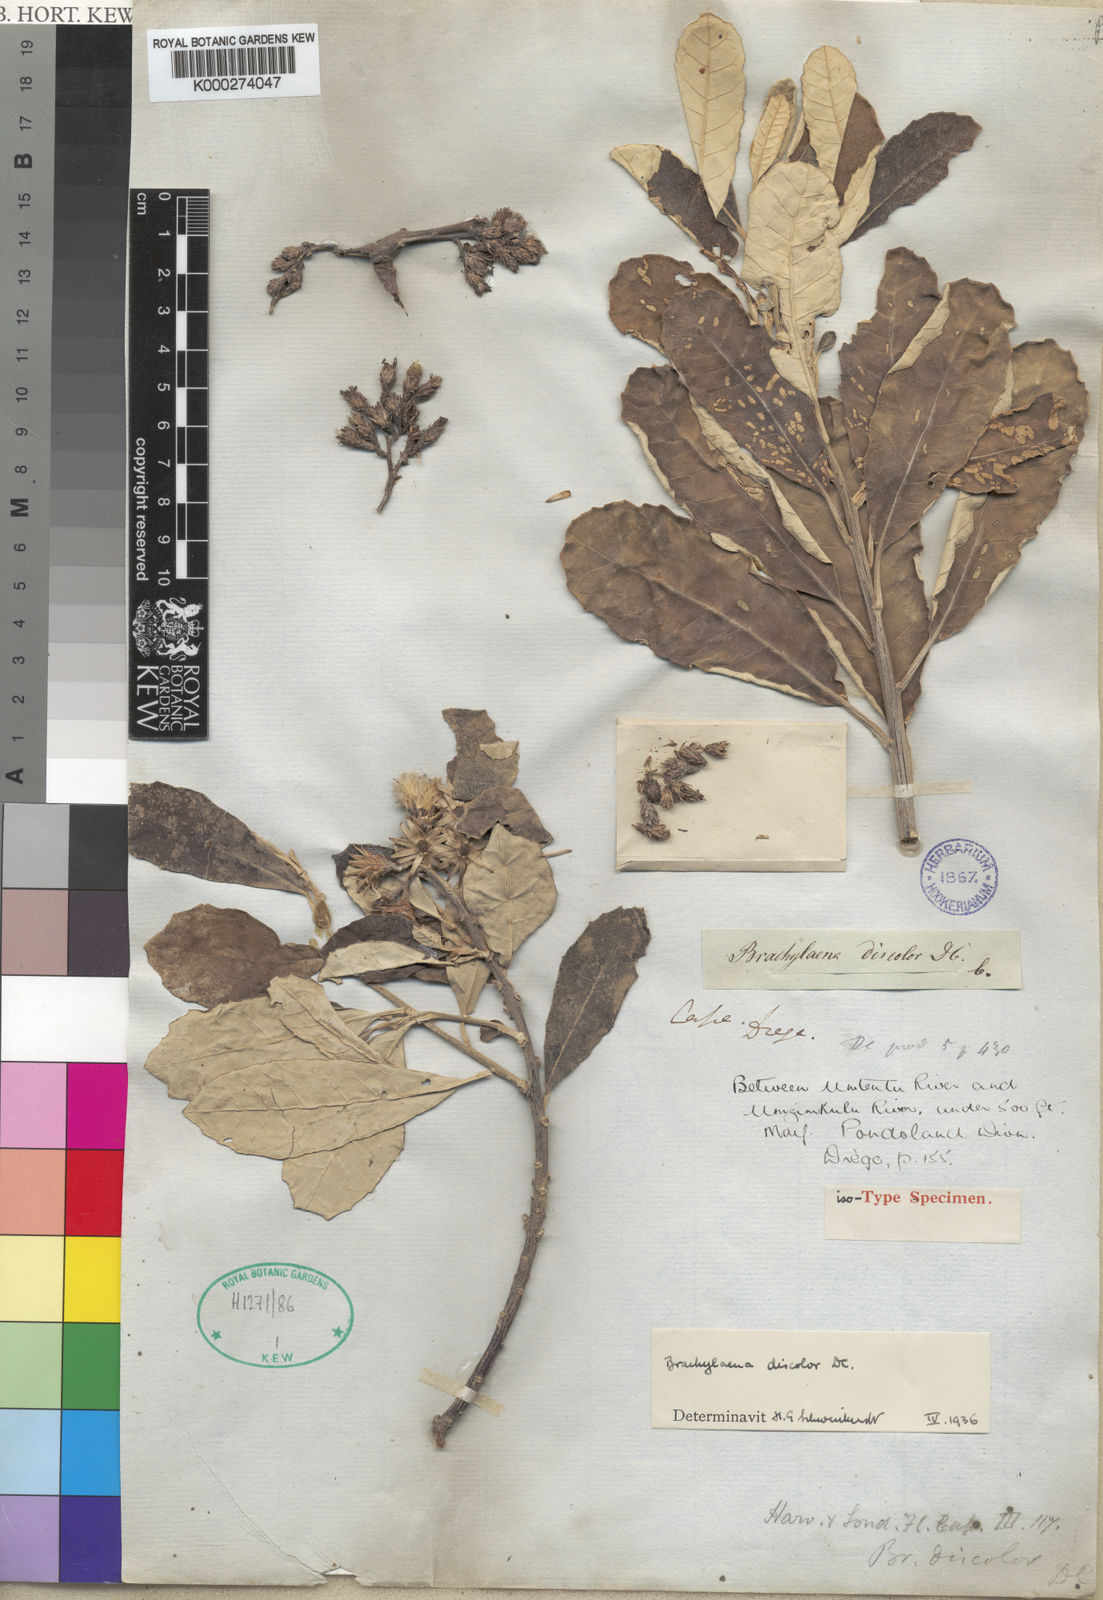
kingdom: Plantae
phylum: Tracheophyta
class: Magnoliopsida
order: Asterales
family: Asteraceae
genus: Brachylaena
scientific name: Brachylaena discolor
